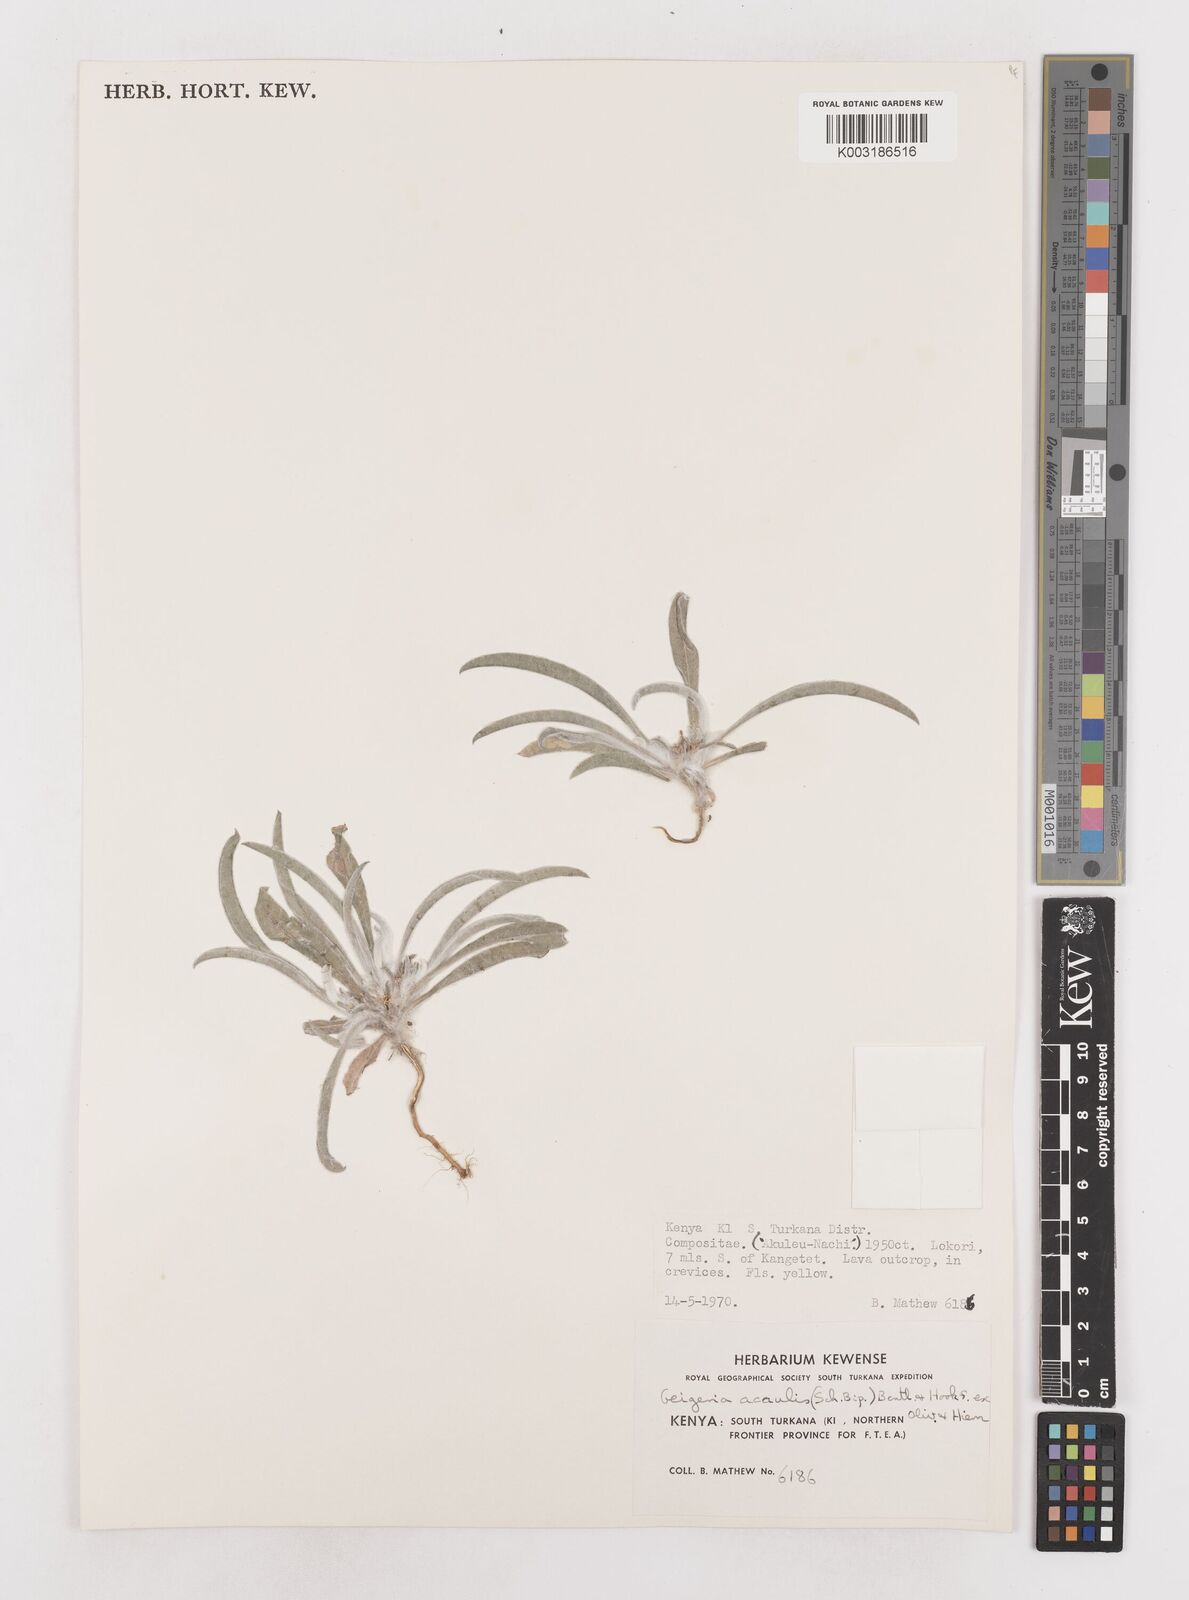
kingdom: Plantae
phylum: Tracheophyta
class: Magnoliopsida
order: Asterales
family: Asteraceae
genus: Geigeria
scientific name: Geigeria acaulis
